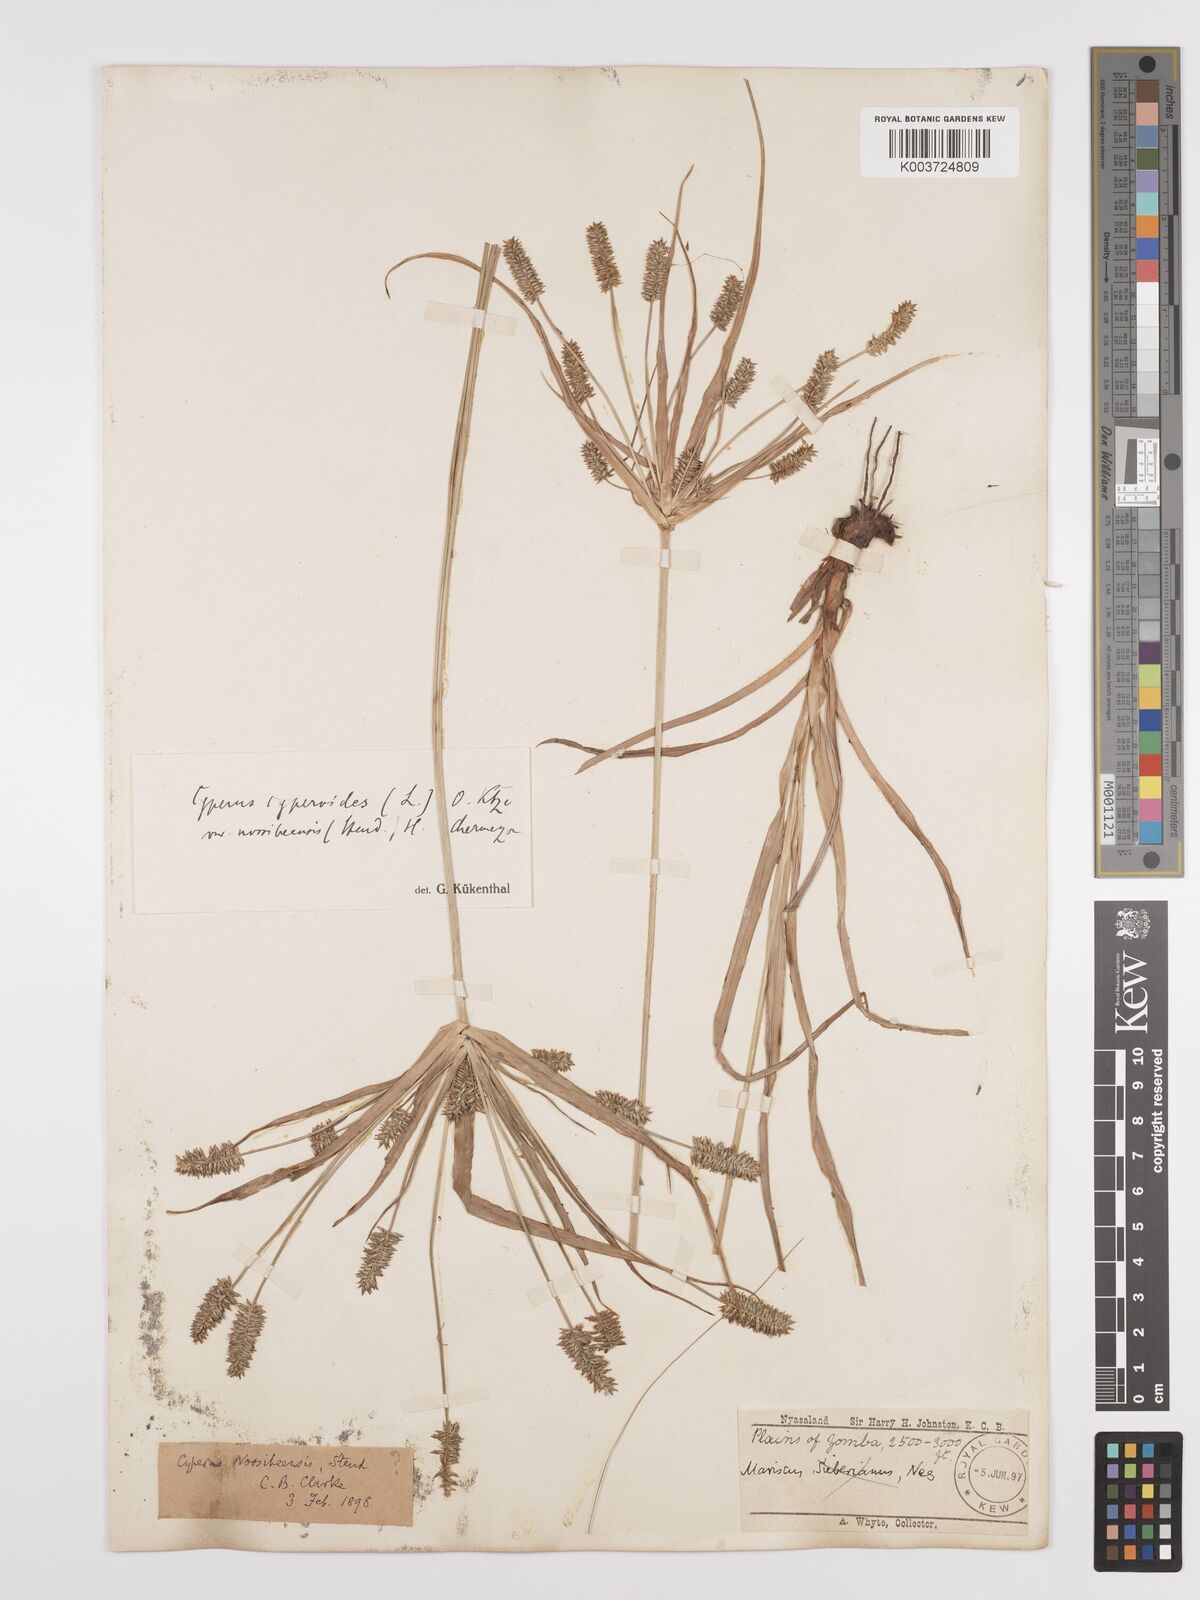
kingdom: Plantae
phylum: Tracheophyta
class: Liliopsida
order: Poales
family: Cyperaceae
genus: Cyperus
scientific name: Cyperus cyperoides
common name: Pacific island flat sedge
